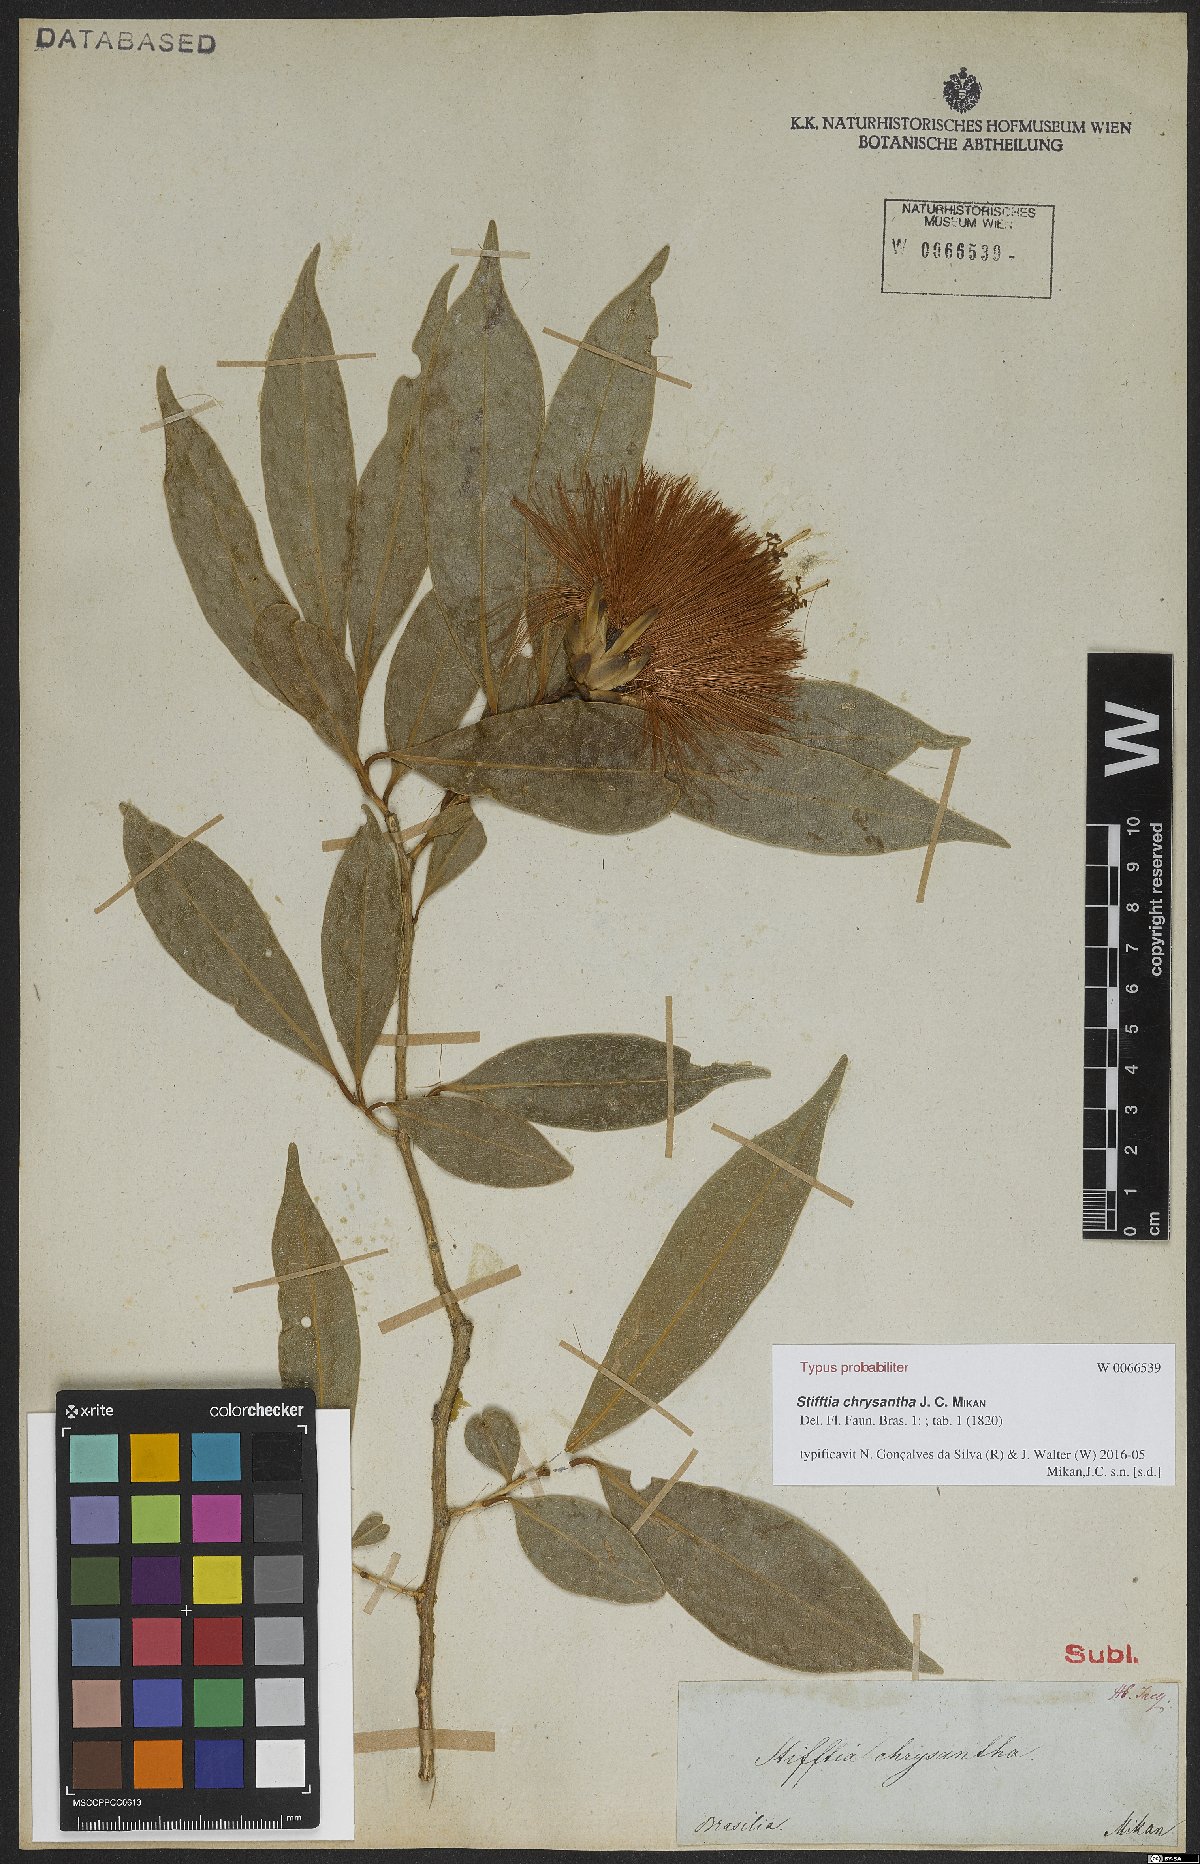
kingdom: Plantae
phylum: Tracheophyta
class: Magnoliopsida
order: Asterales
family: Asteraceae
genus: Stifftia
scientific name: Stifftia chrysantha
